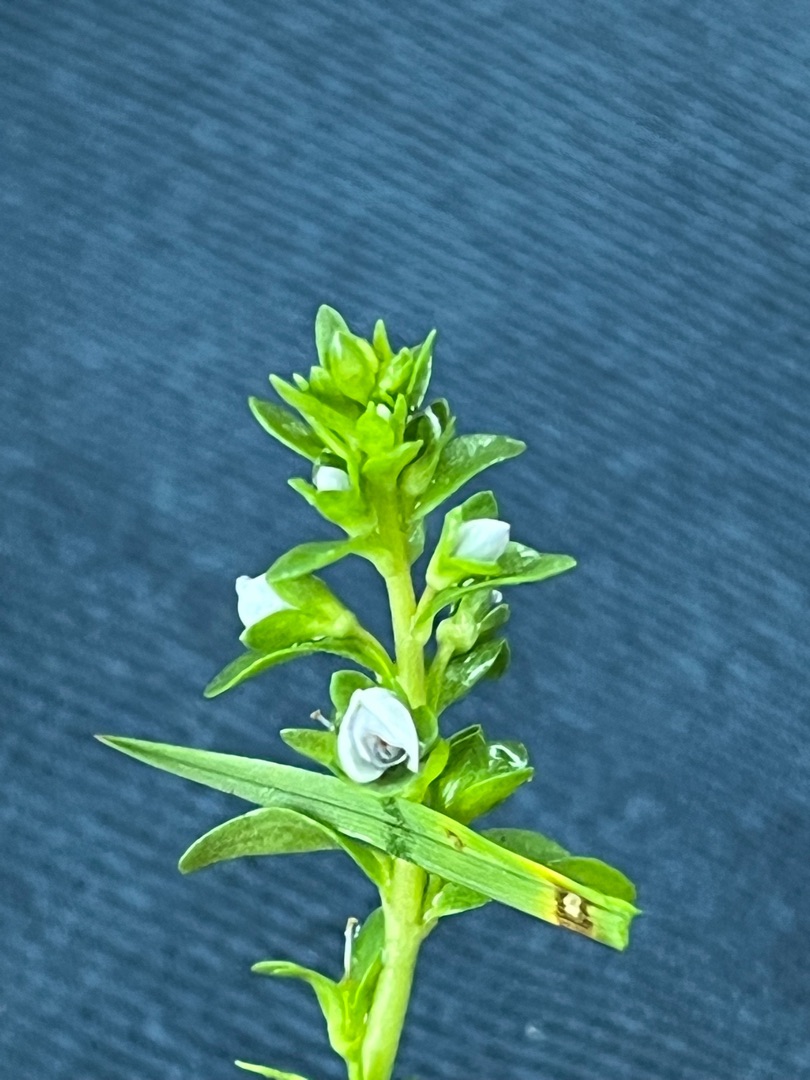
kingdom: Plantae
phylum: Tracheophyta
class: Magnoliopsida
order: Lamiales
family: Plantaginaceae
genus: Veronica
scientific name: Veronica serpyllifolia
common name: Glat ærenpris
